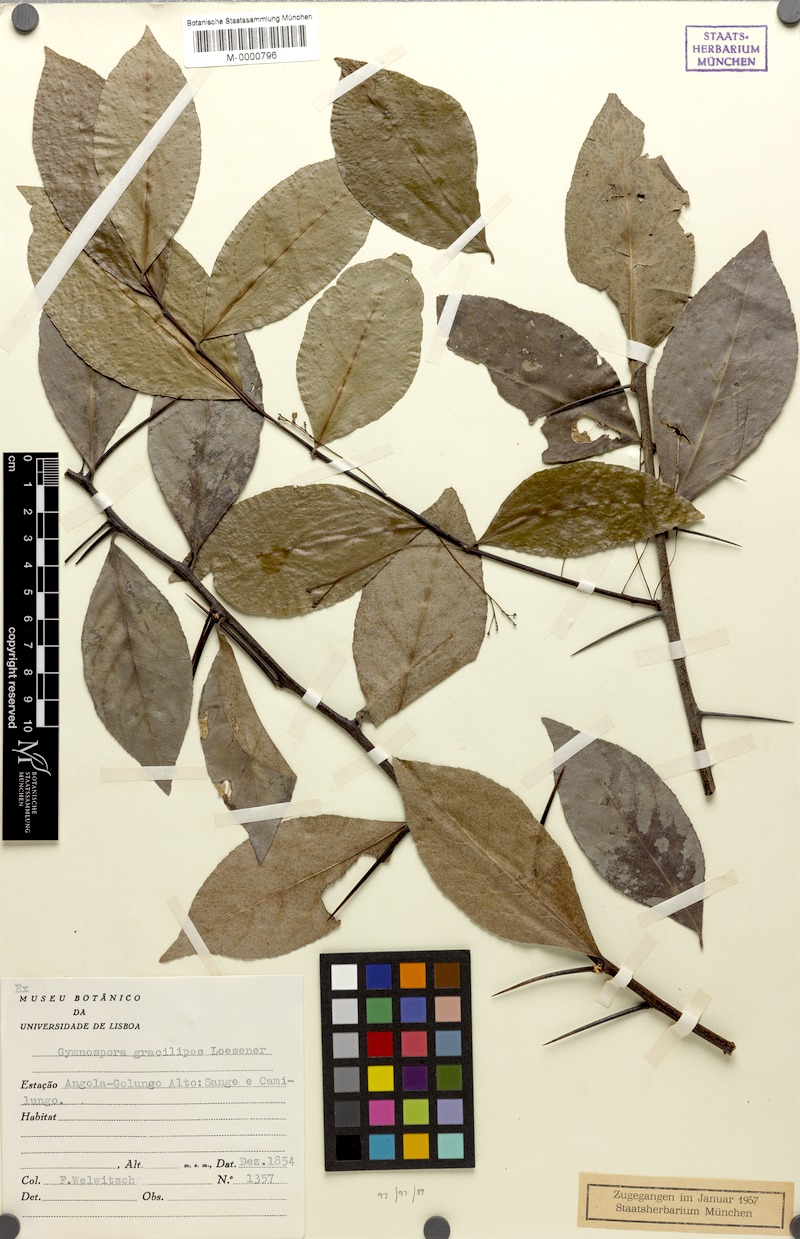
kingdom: Plantae
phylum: Tracheophyta
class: Magnoliopsida
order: Celastrales
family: Celastraceae
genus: Gymnosporia
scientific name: Gymnosporia gracilipes
